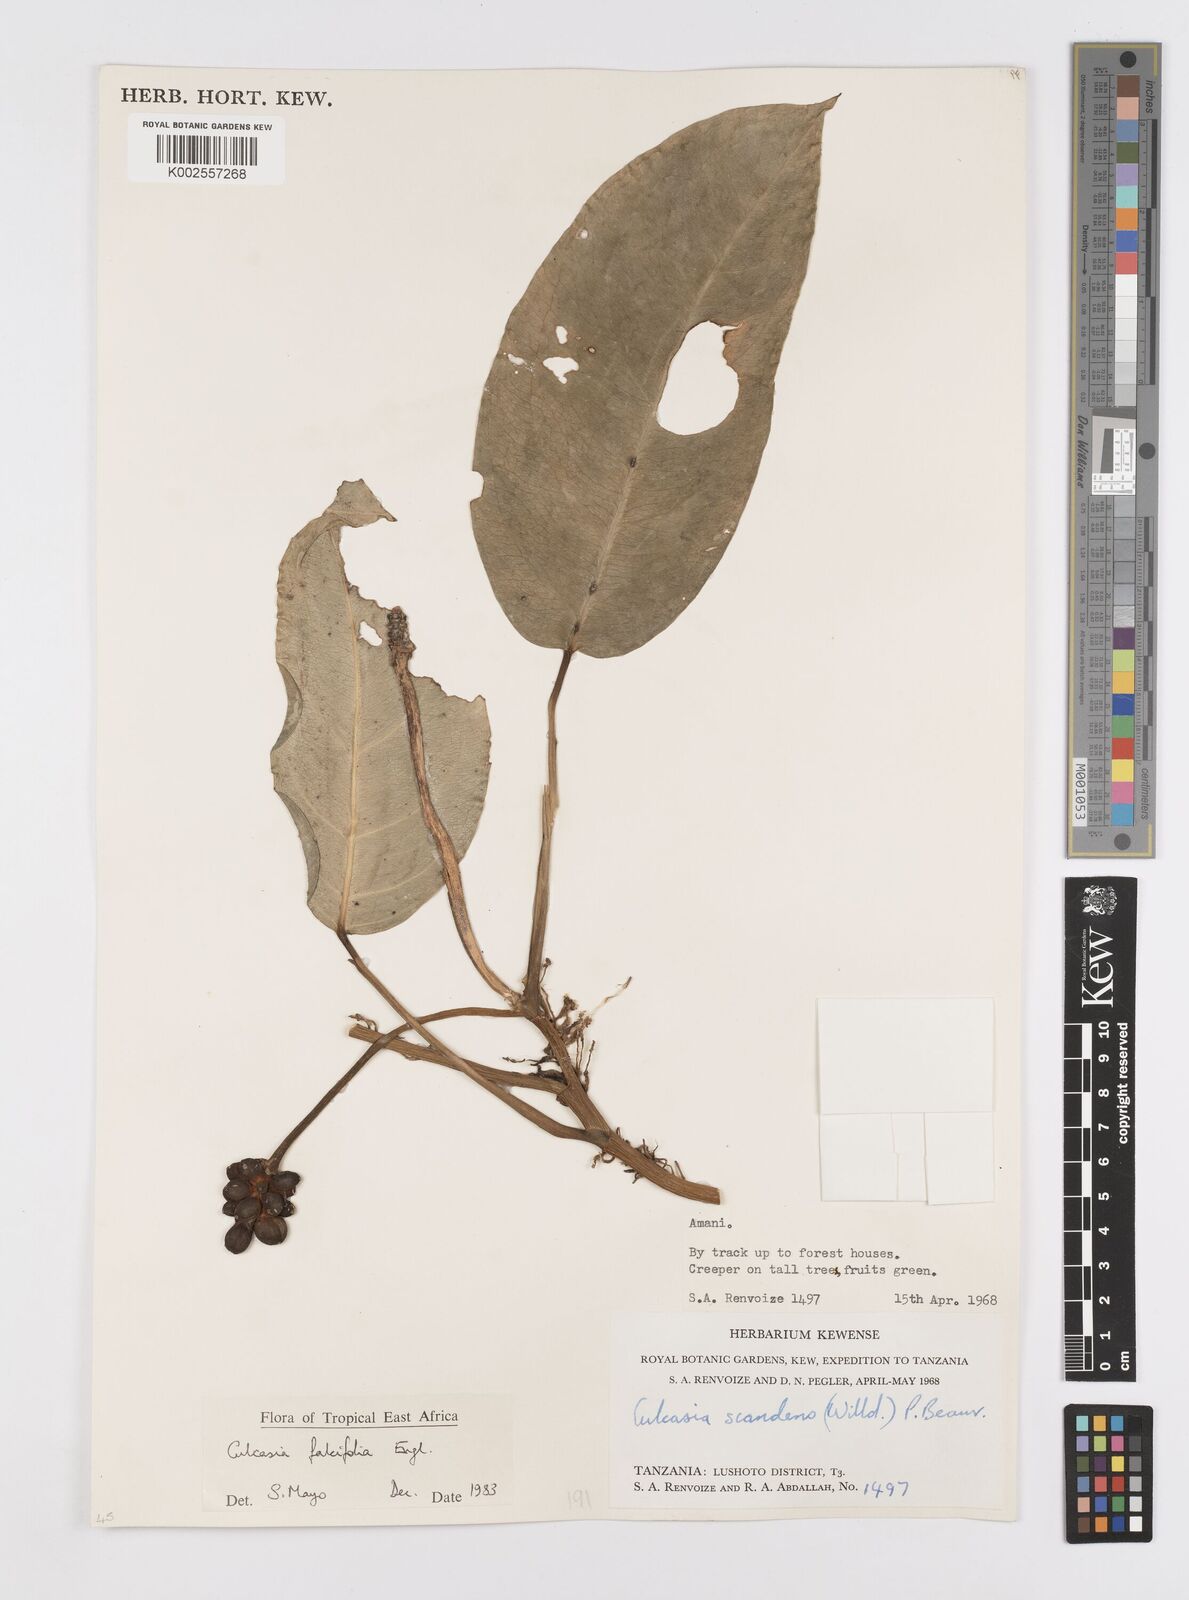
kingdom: Plantae
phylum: Tracheophyta
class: Liliopsida
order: Alismatales
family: Araceae
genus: Culcasia
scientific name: Culcasia falcifolia
